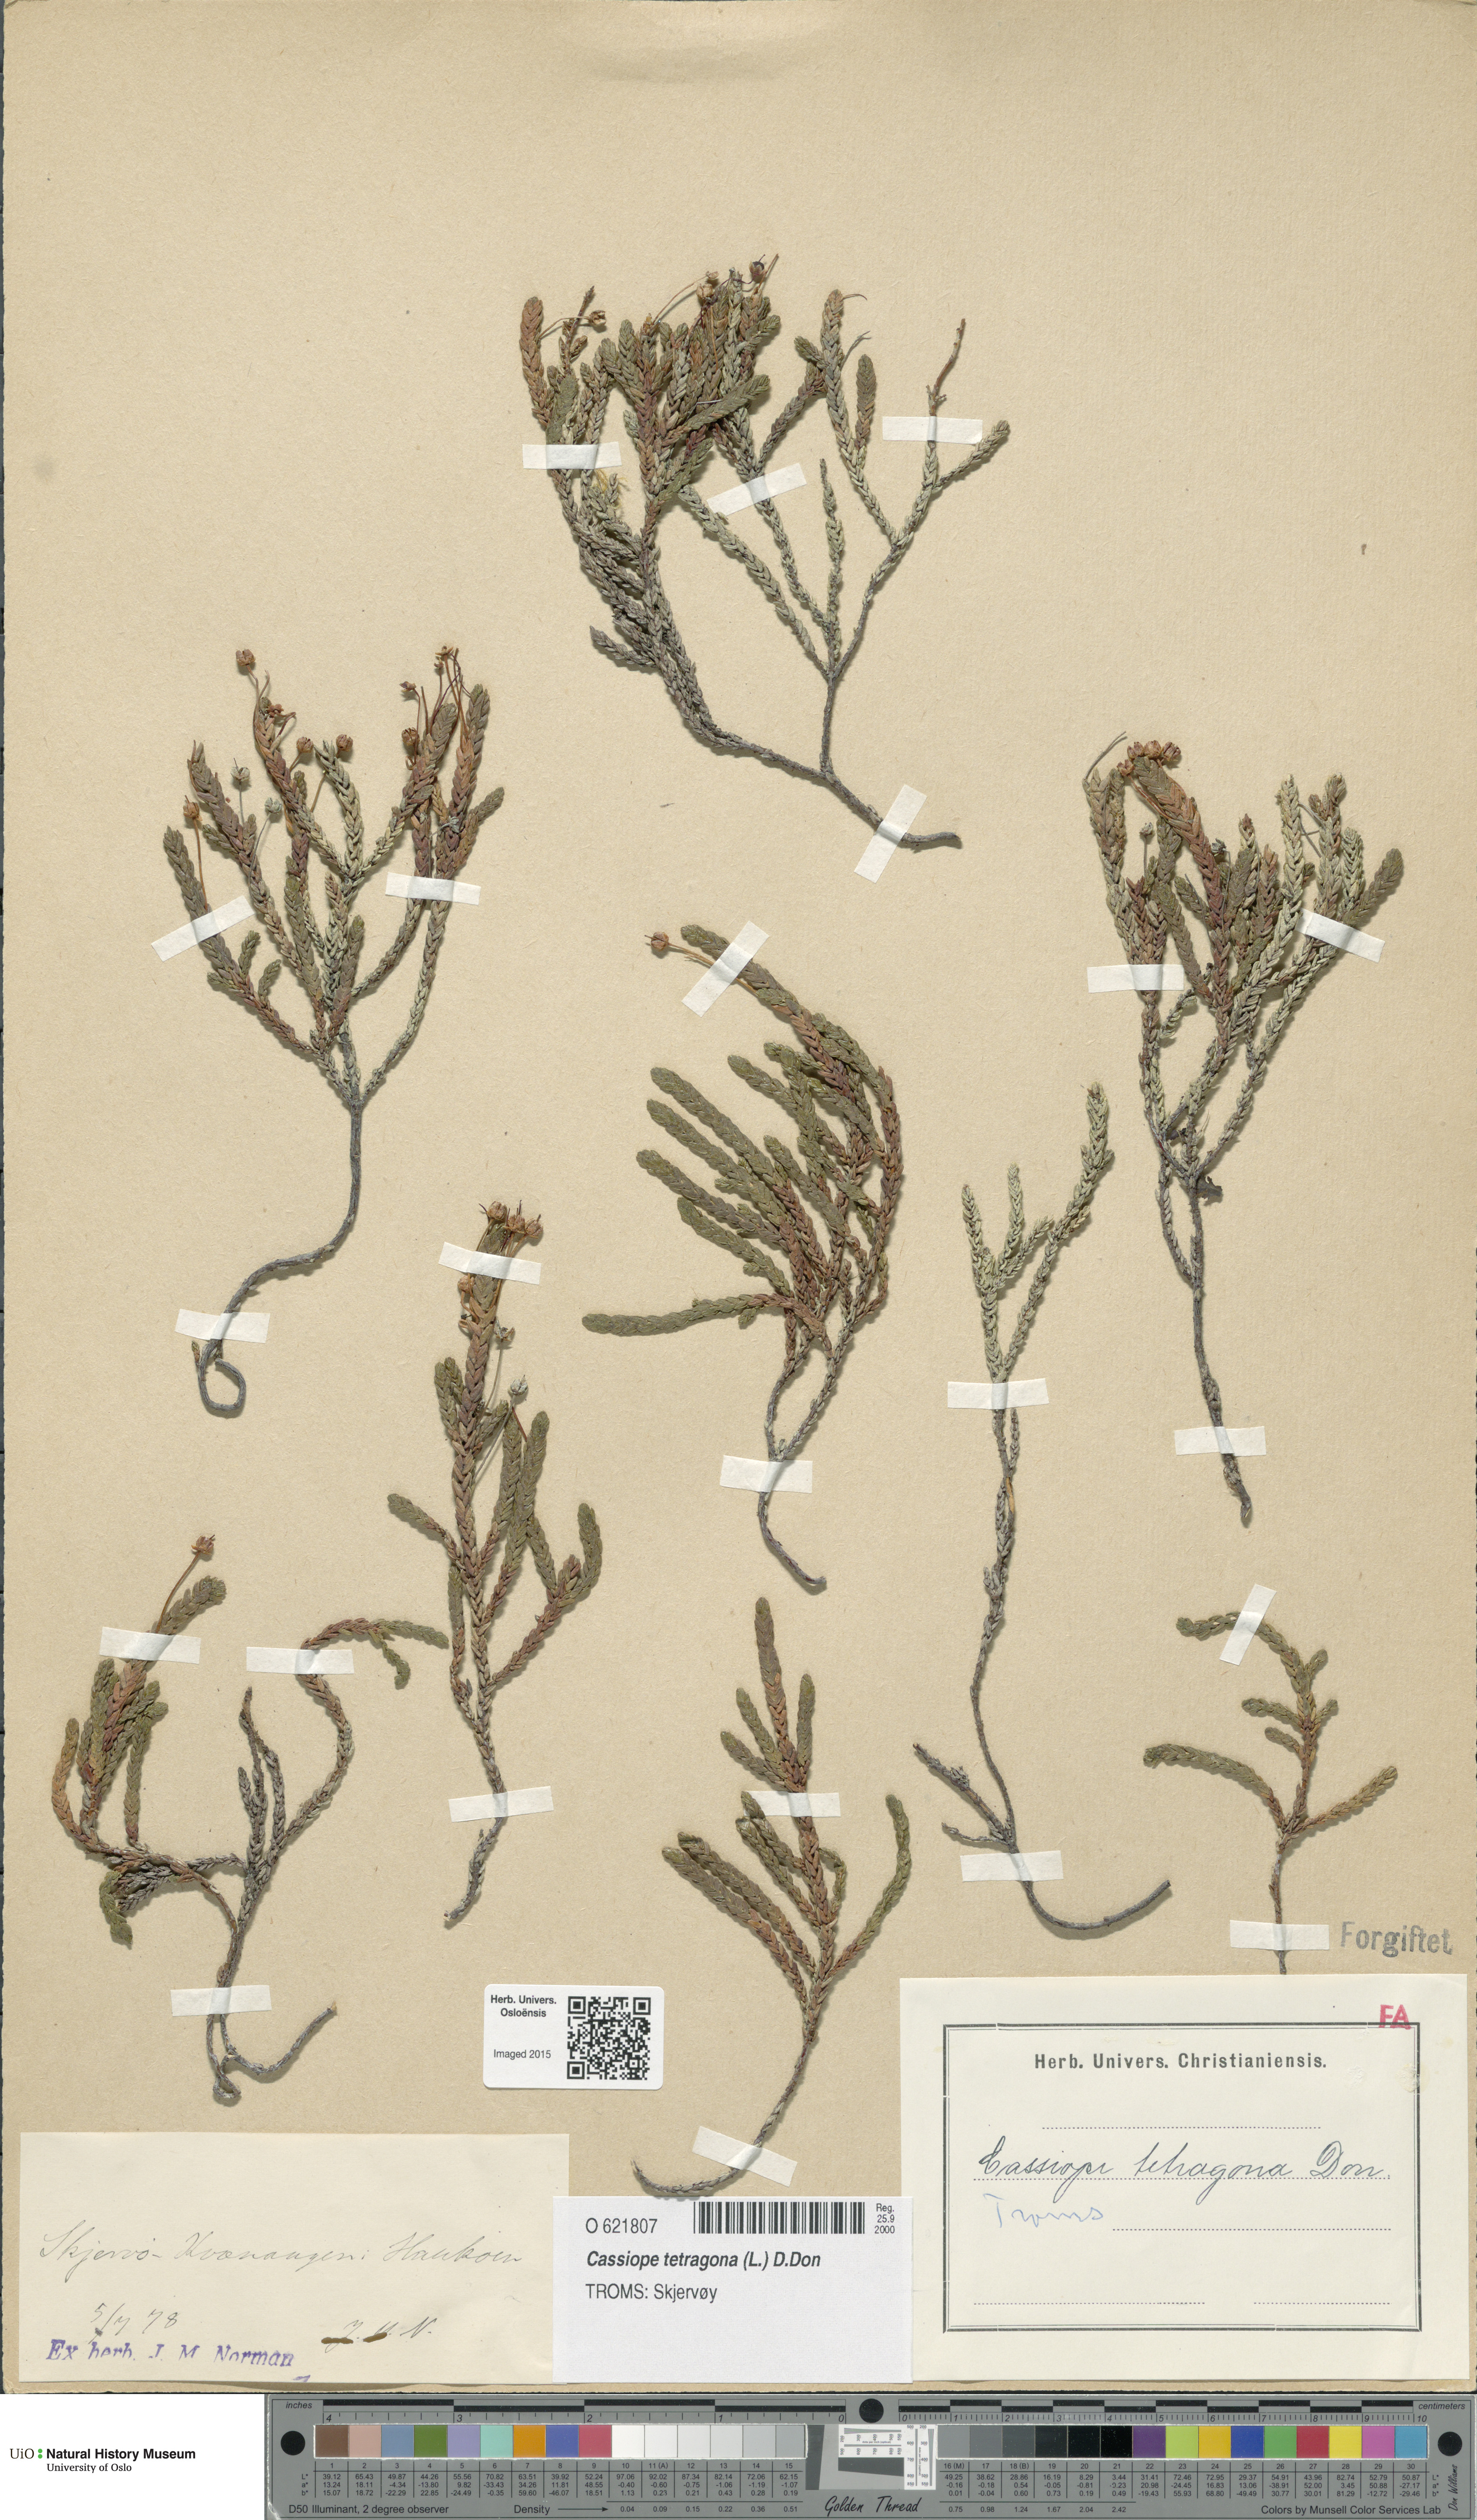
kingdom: Plantae
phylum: Tracheophyta
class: Magnoliopsida
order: Ericales
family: Ericaceae
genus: Cassiope
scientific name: Cassiope tetragona
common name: Arctic bell heather
